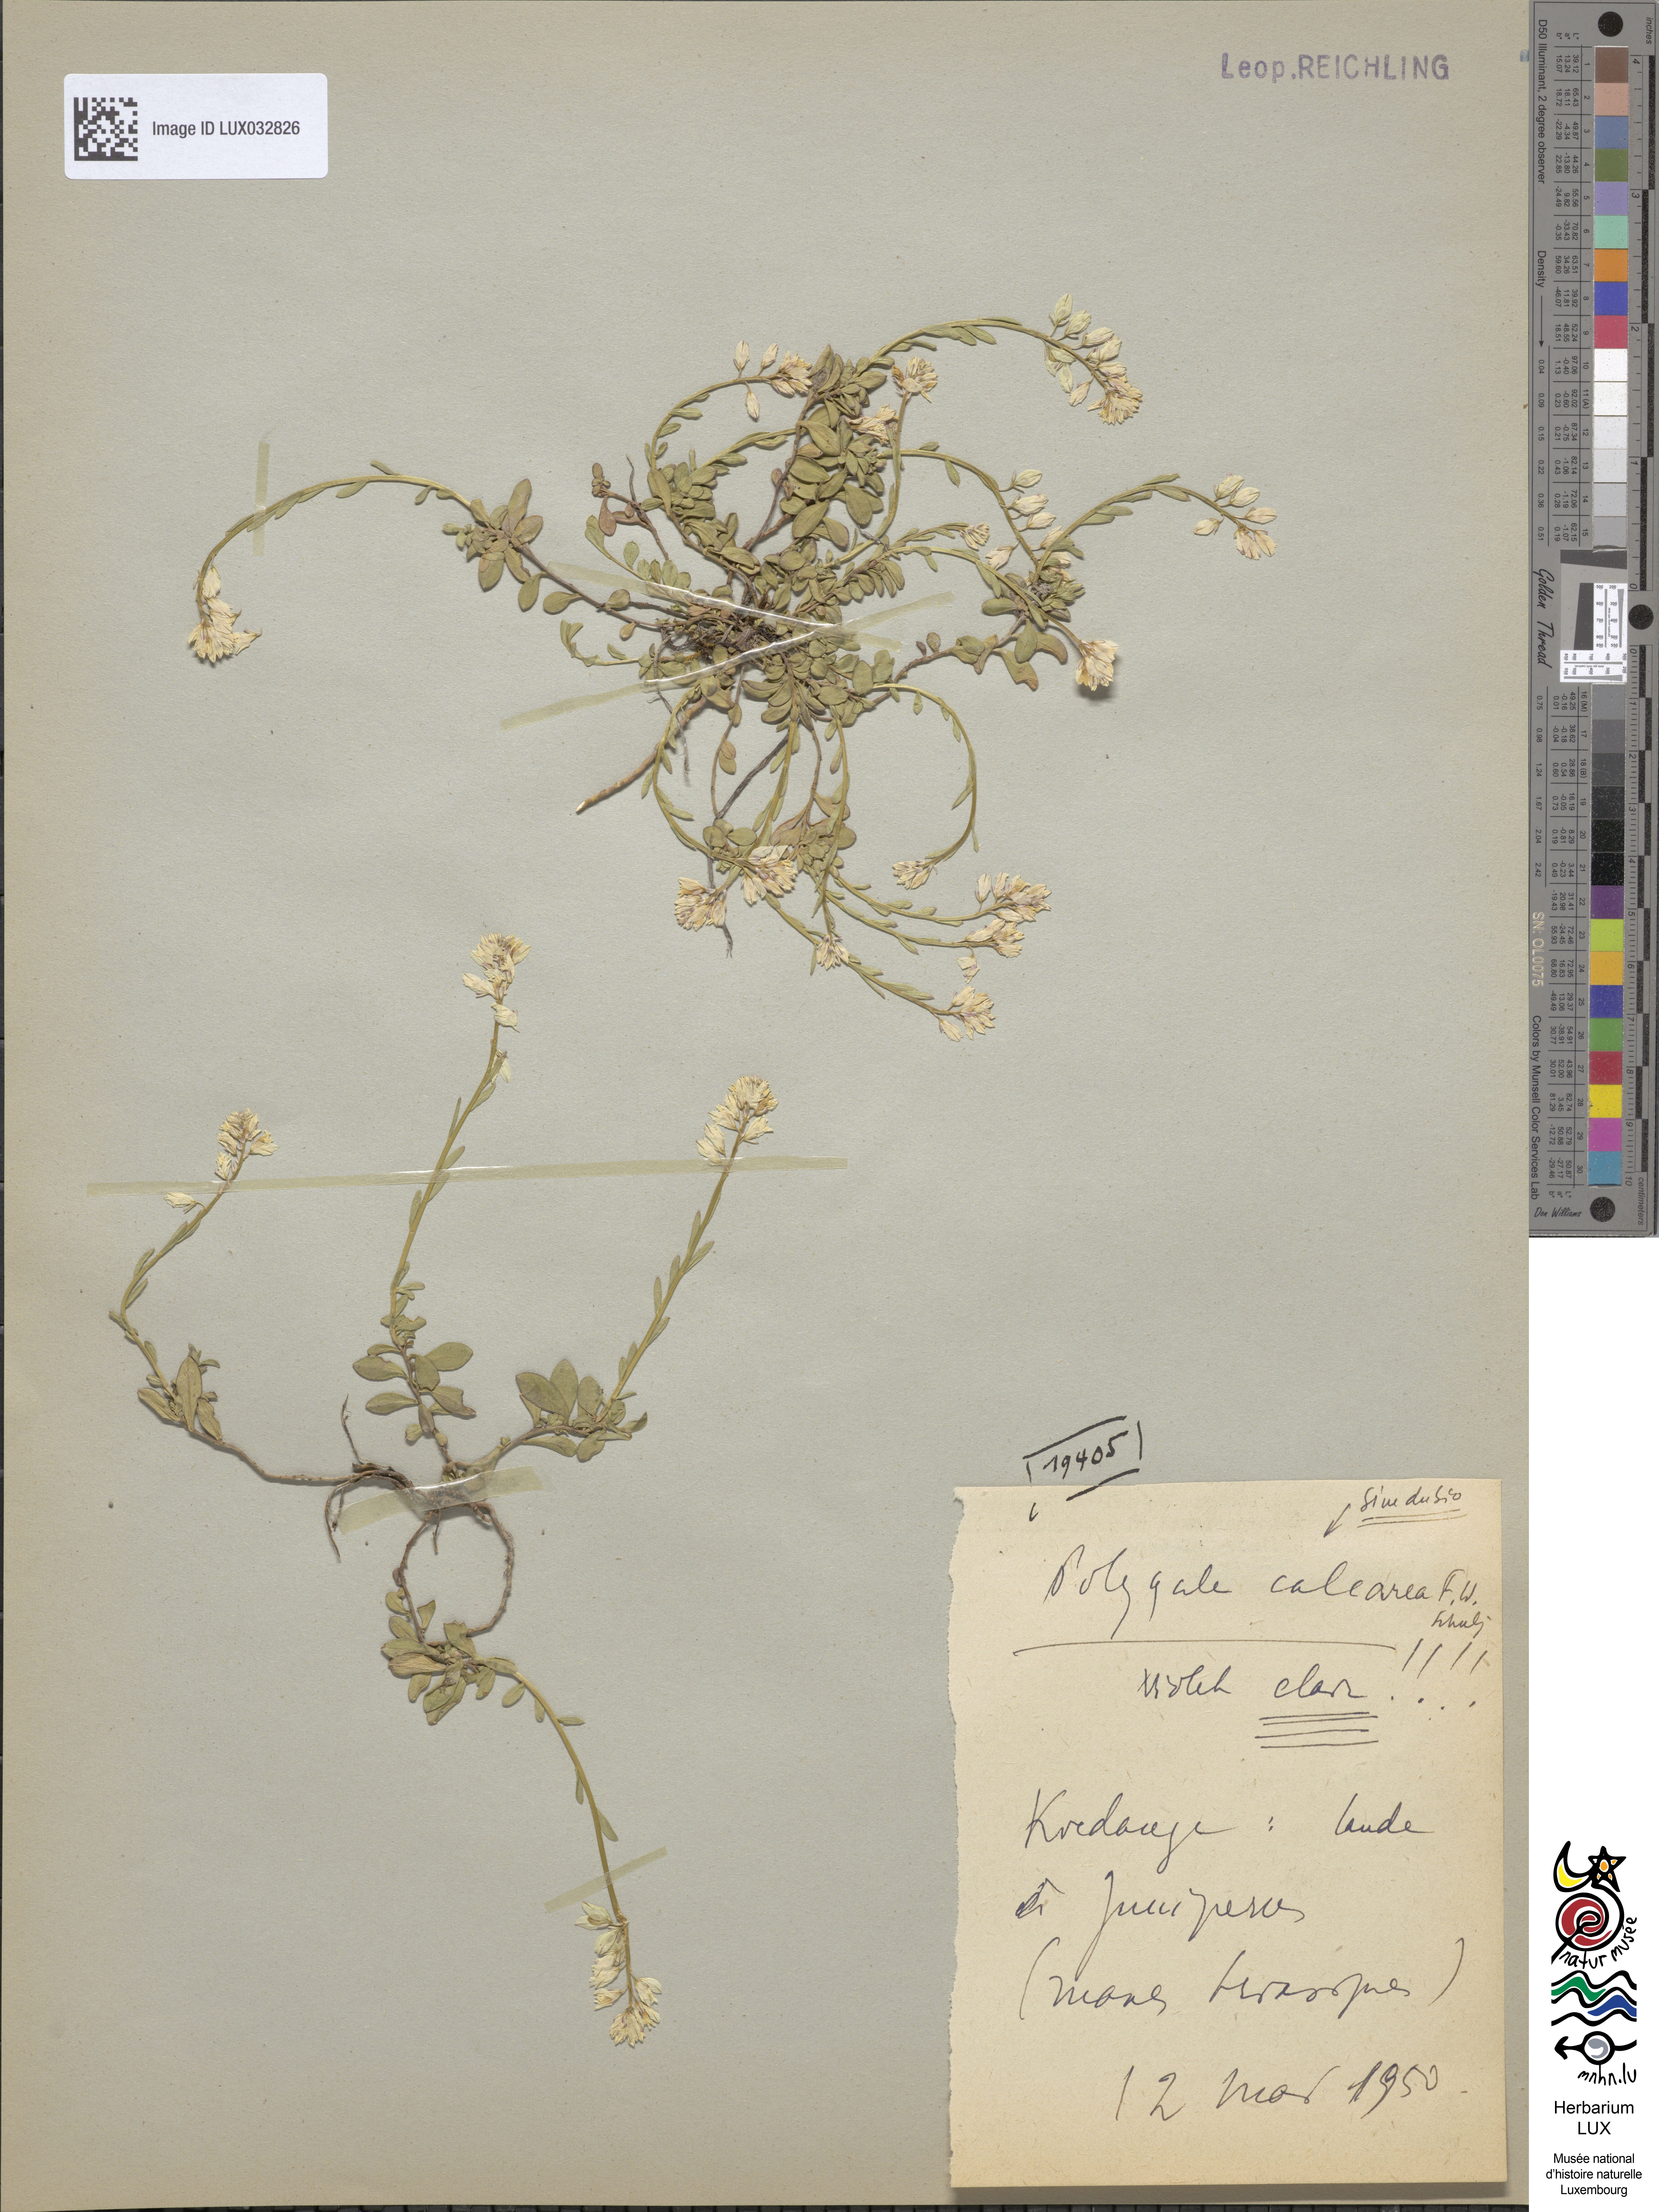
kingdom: Plantae
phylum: Tracheophyta
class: Magnoliopsida
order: Fabales
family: Polygalaceae
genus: Polygala
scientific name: Polygala calcarea
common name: Chalk milkwort
